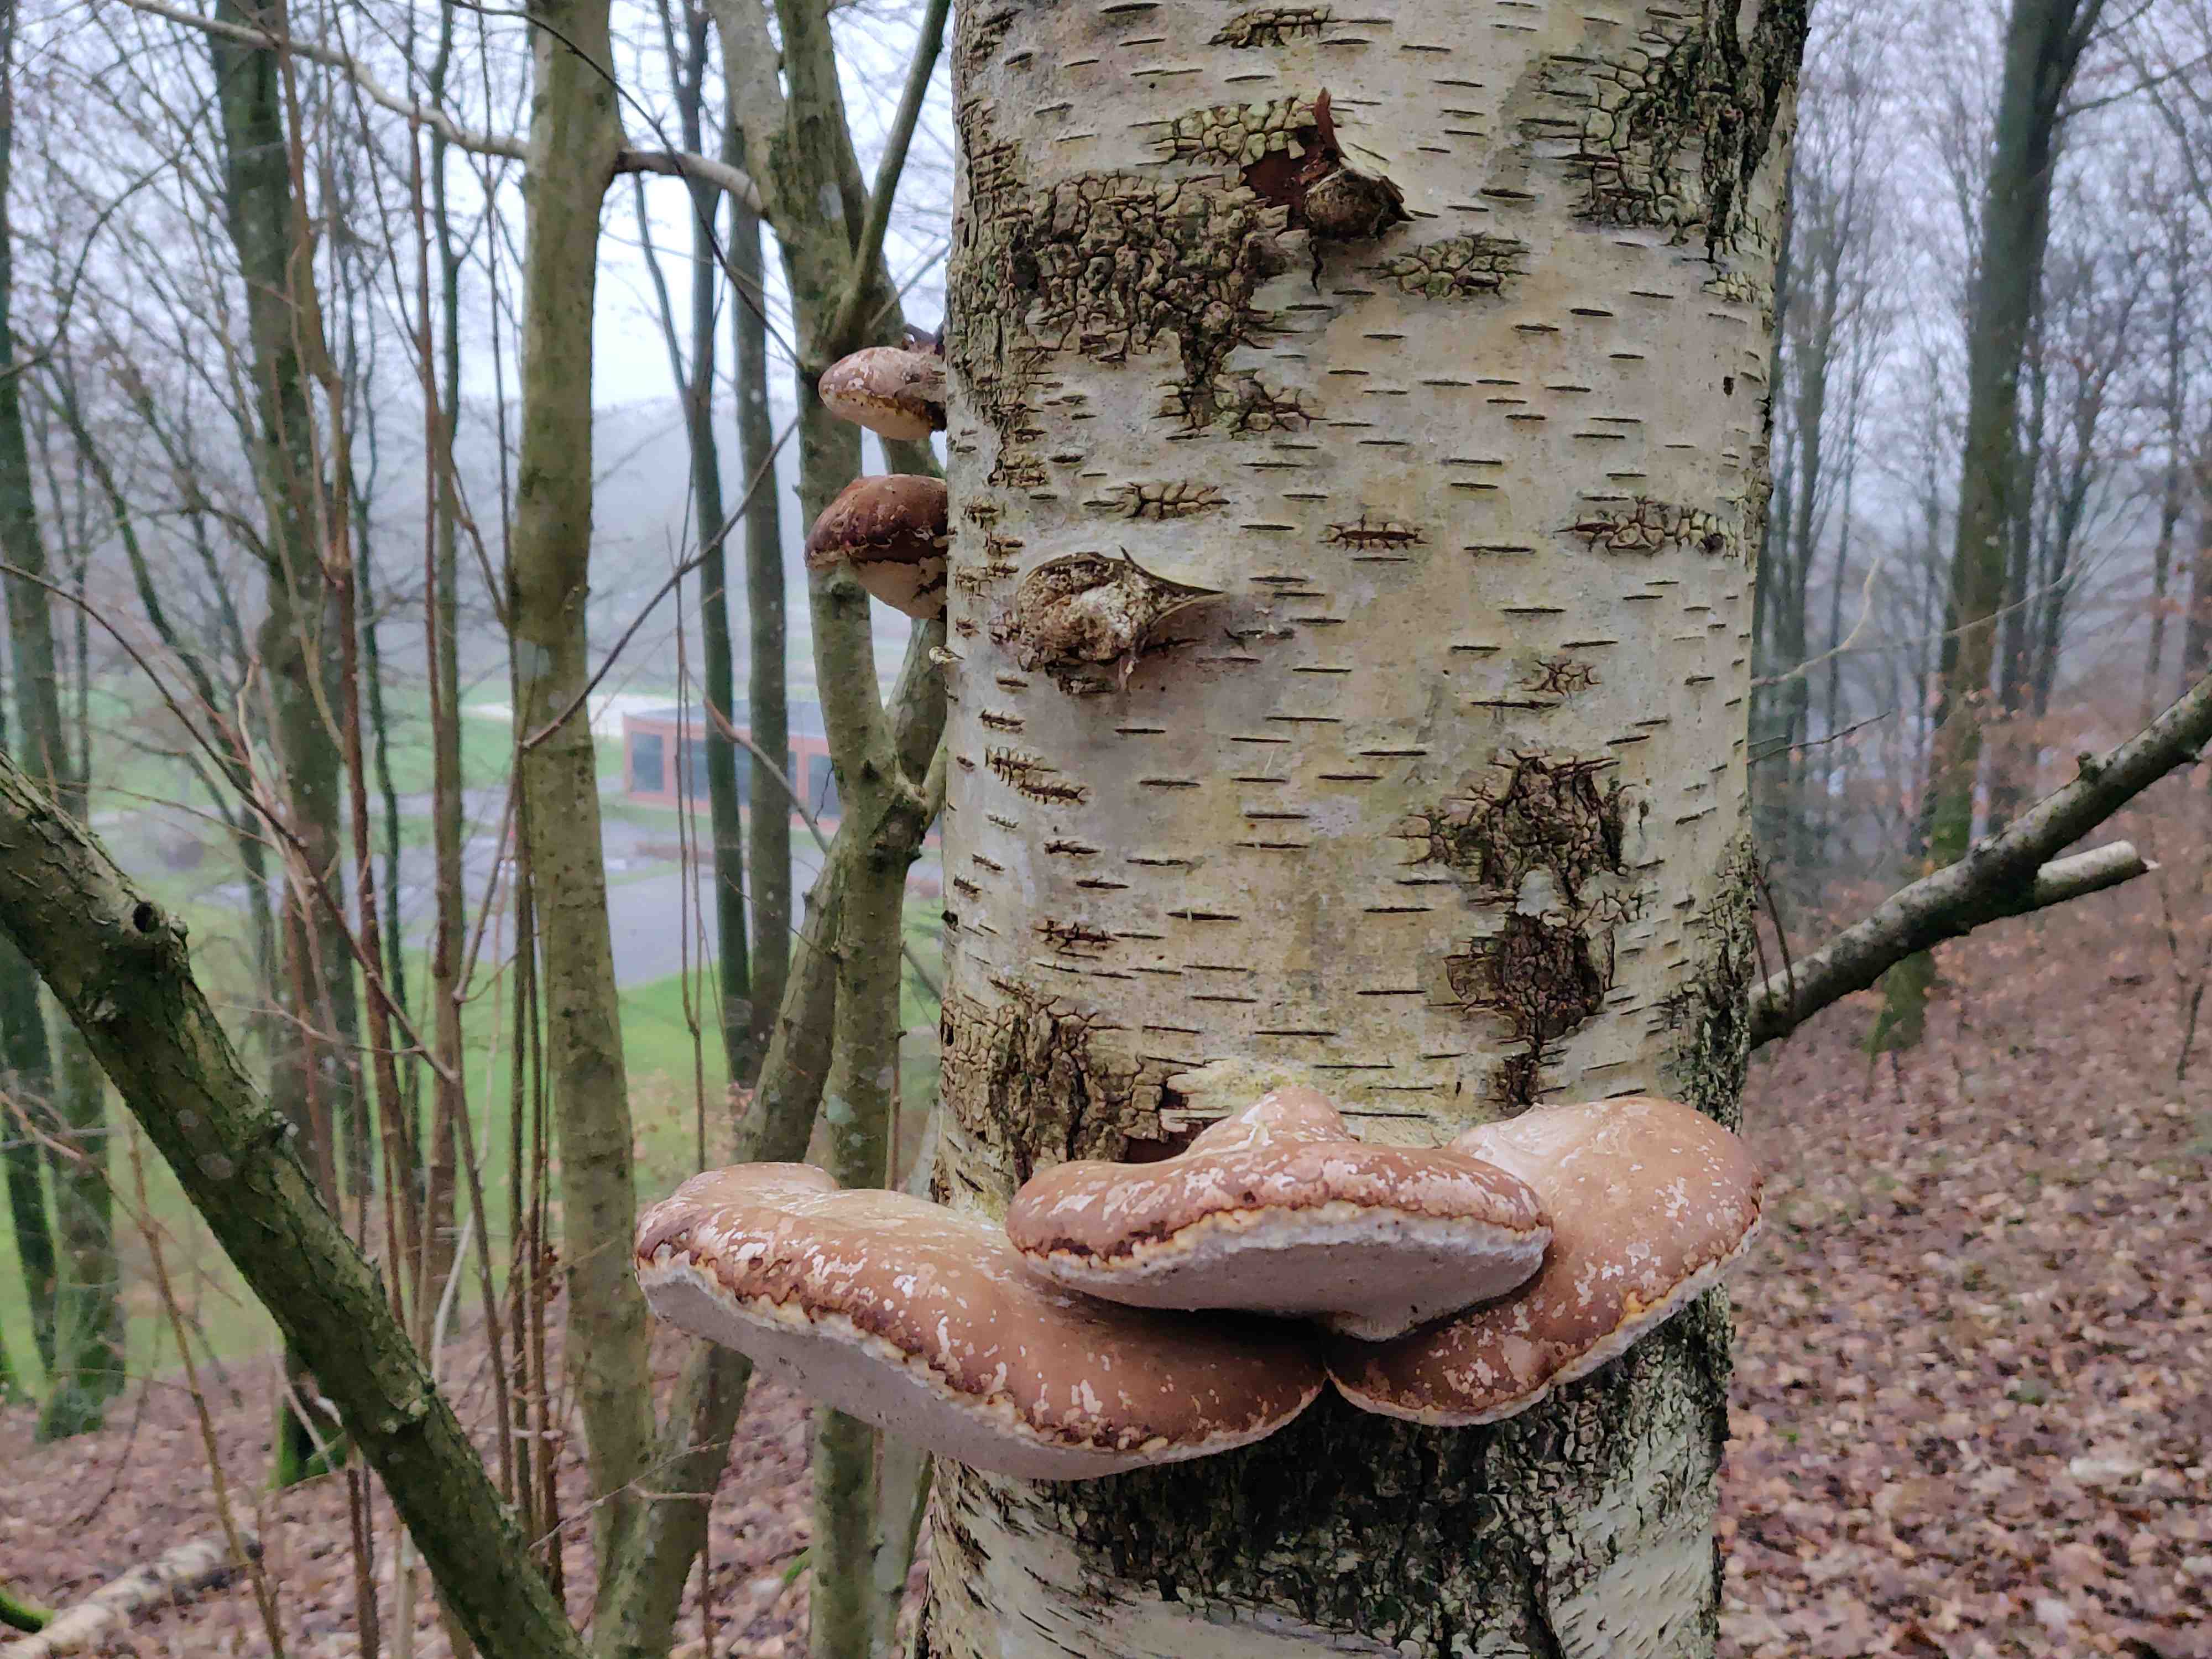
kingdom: Fungi
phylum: Basidiomycota
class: Agaricomycetes
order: Polyporales
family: Fomitopsidaceae
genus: Fomitopsis
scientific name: Fomitopsis betulina
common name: birkeporesvamp
